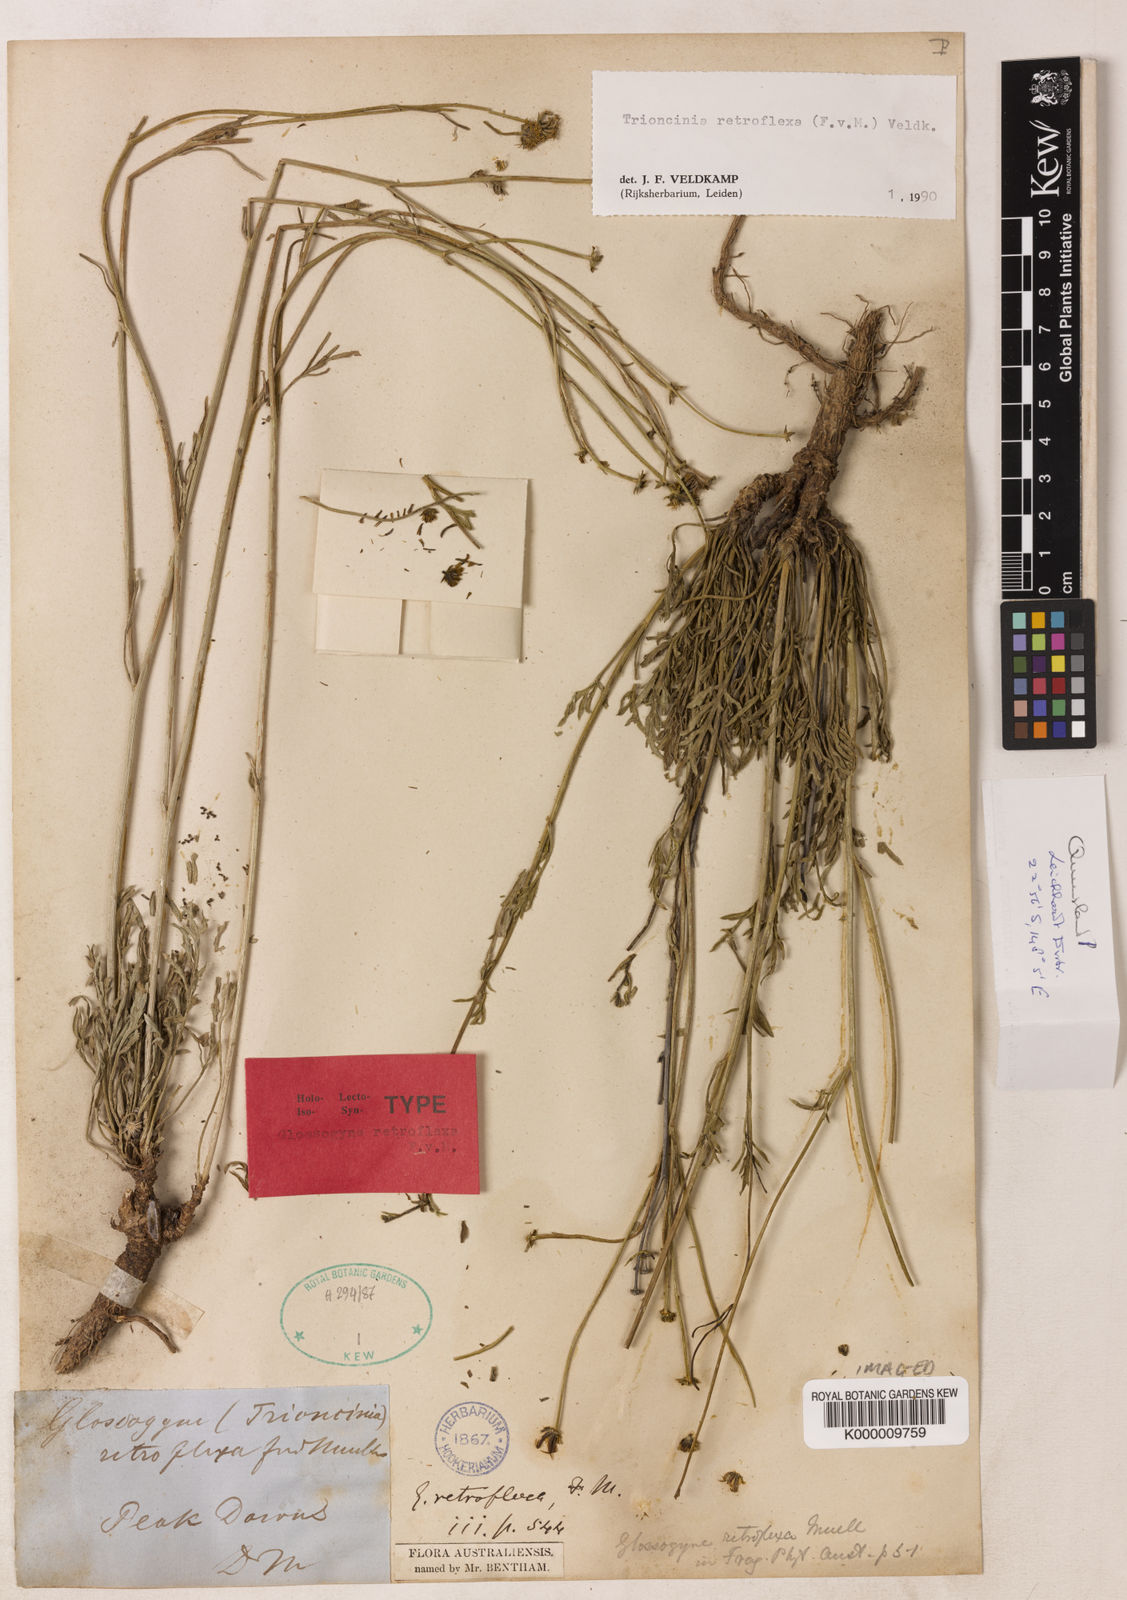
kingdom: Plantae
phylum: Tracheophyta
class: Magnoliopsida
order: Asterales
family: Asteraceae
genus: Trioncinia
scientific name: Trioncinia retroflexa
